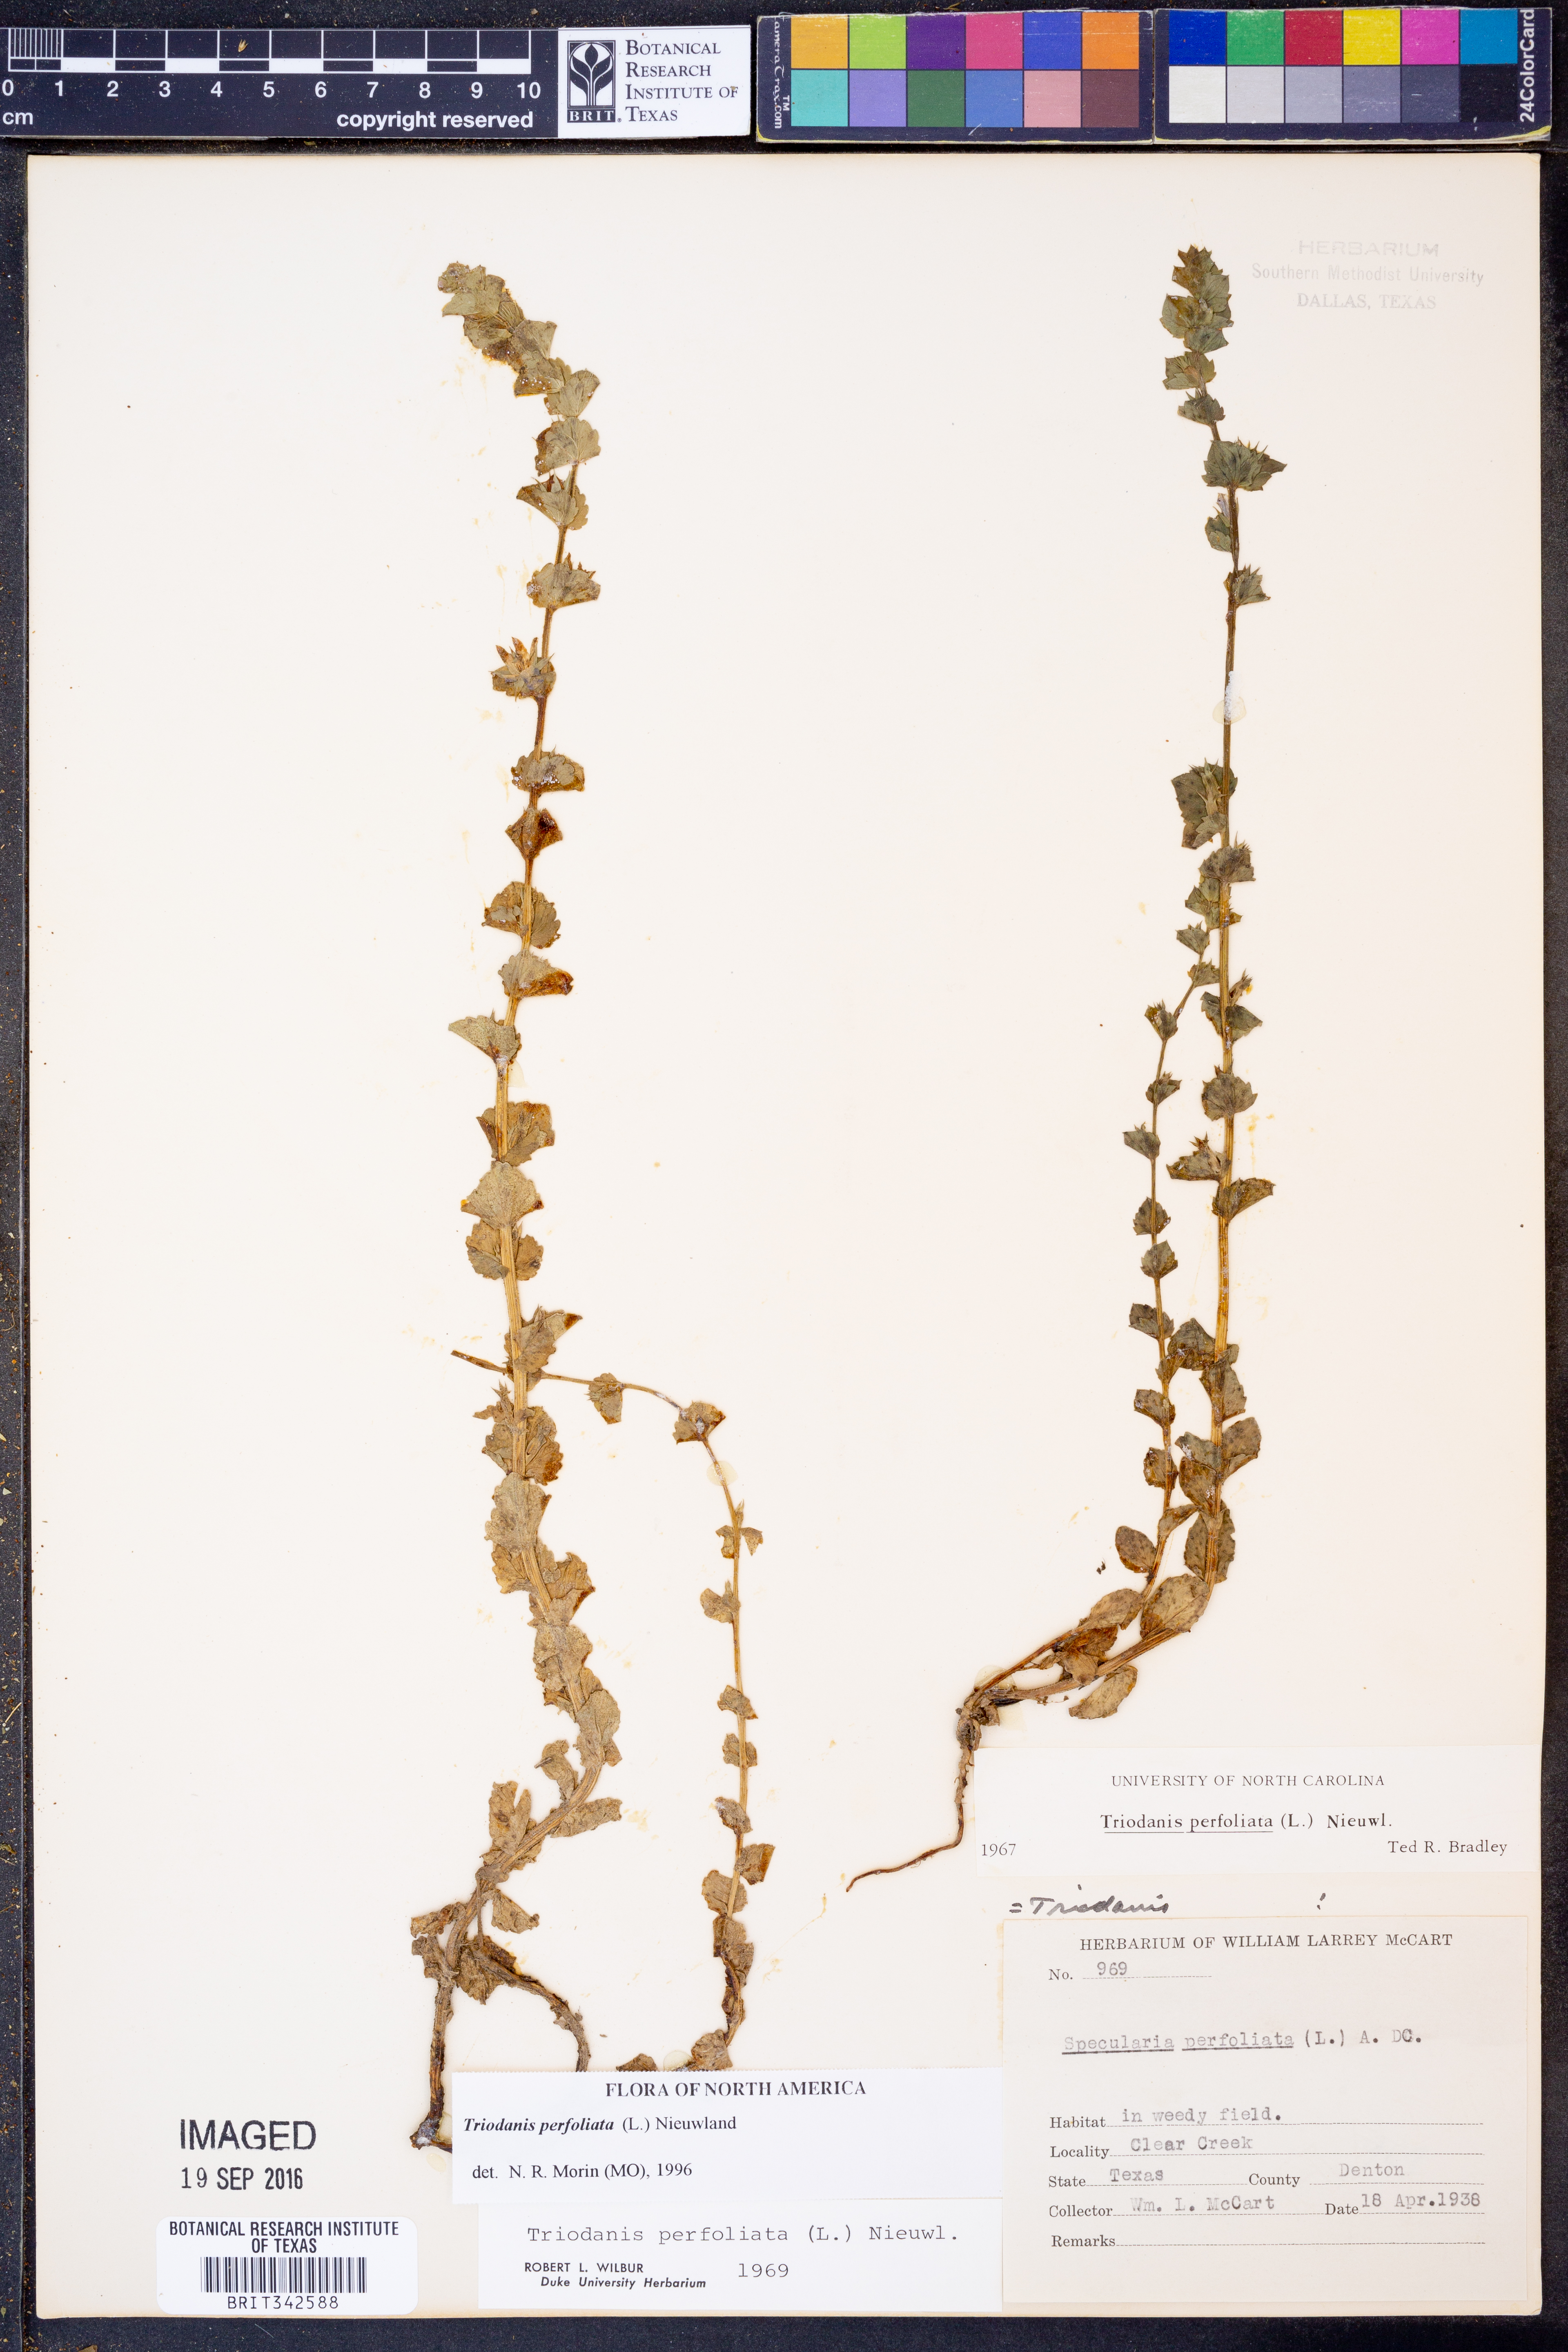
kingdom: Plantae
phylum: Tracheophyta
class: Magnoliopsida
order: Asterales
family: Campanulaceae
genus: Triodanis
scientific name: Triodanis perfoliata
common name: Clasping venus' looking-glass
